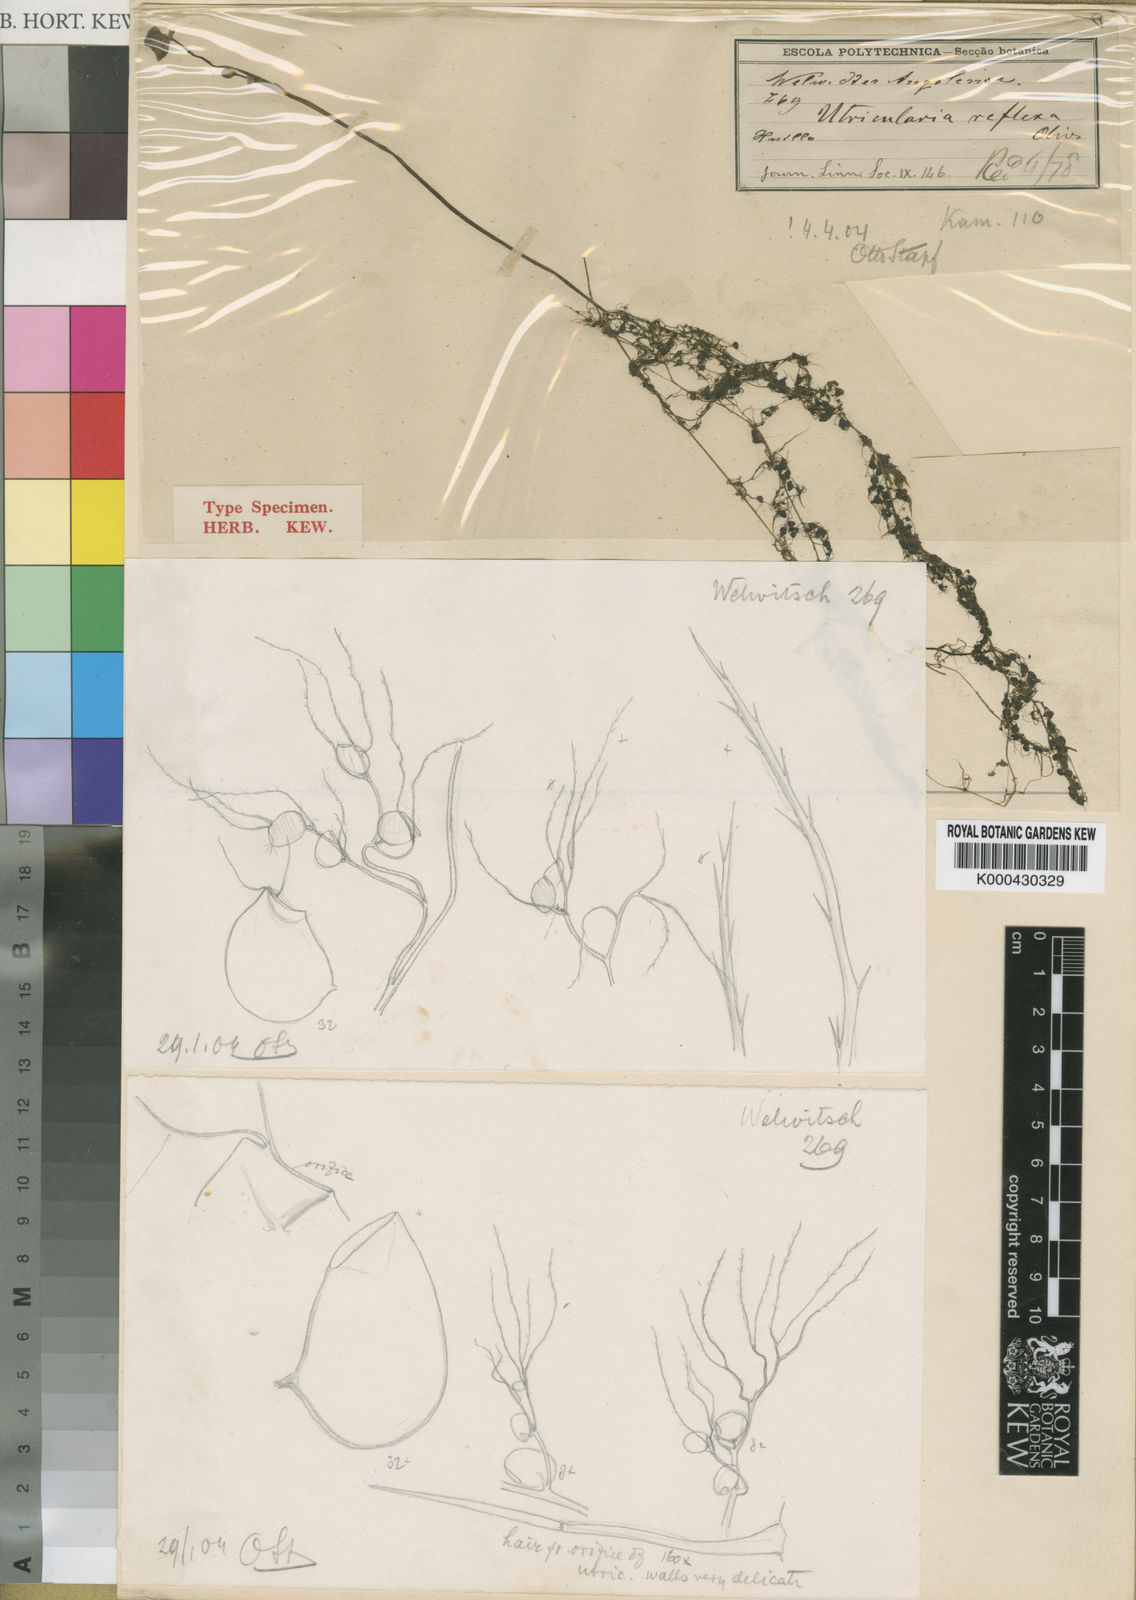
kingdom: Plantae
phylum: Tracheophyta
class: Magnoliopsida
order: Lamiales
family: Lentibulariaceae
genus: Utricularia
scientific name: Utricularia reflexa
